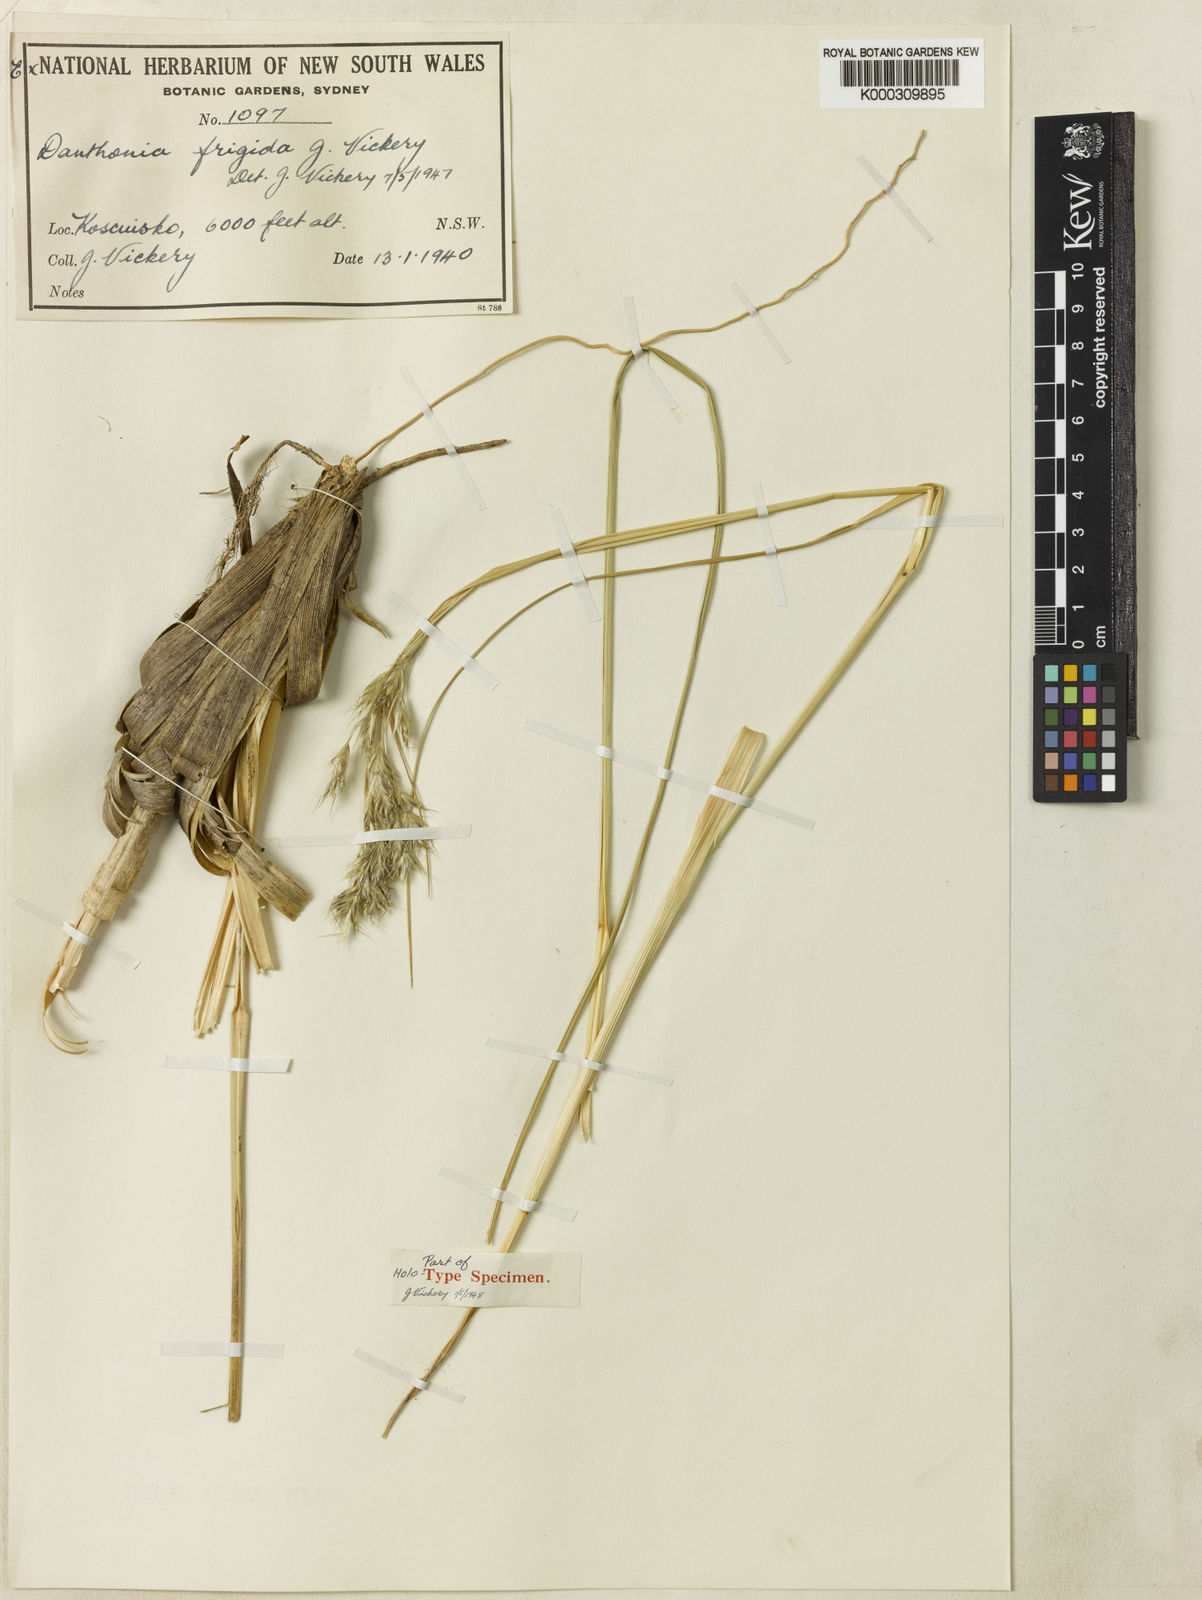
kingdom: Plantae
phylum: Tracheophyta
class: Liliopsida
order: Poales
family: Poaceae
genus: Chionochloa
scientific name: Chionochloa frigida
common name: Robust wallaby grass
